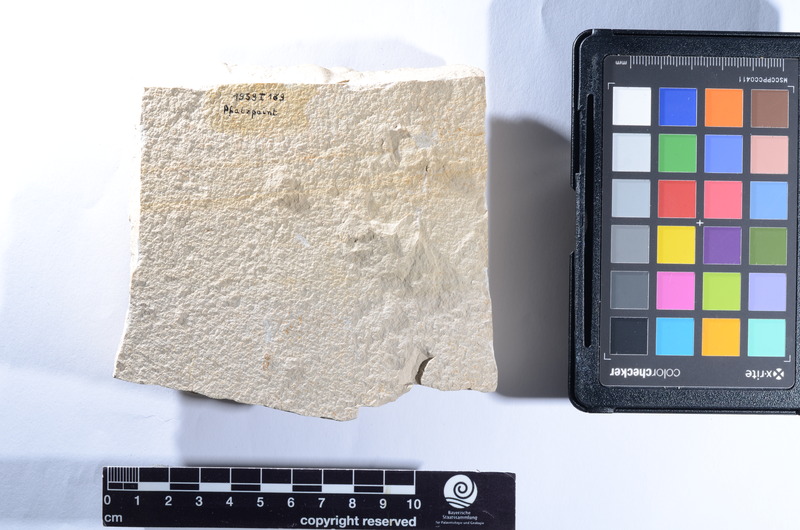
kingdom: Animalia
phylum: Chordata
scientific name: Chordata
